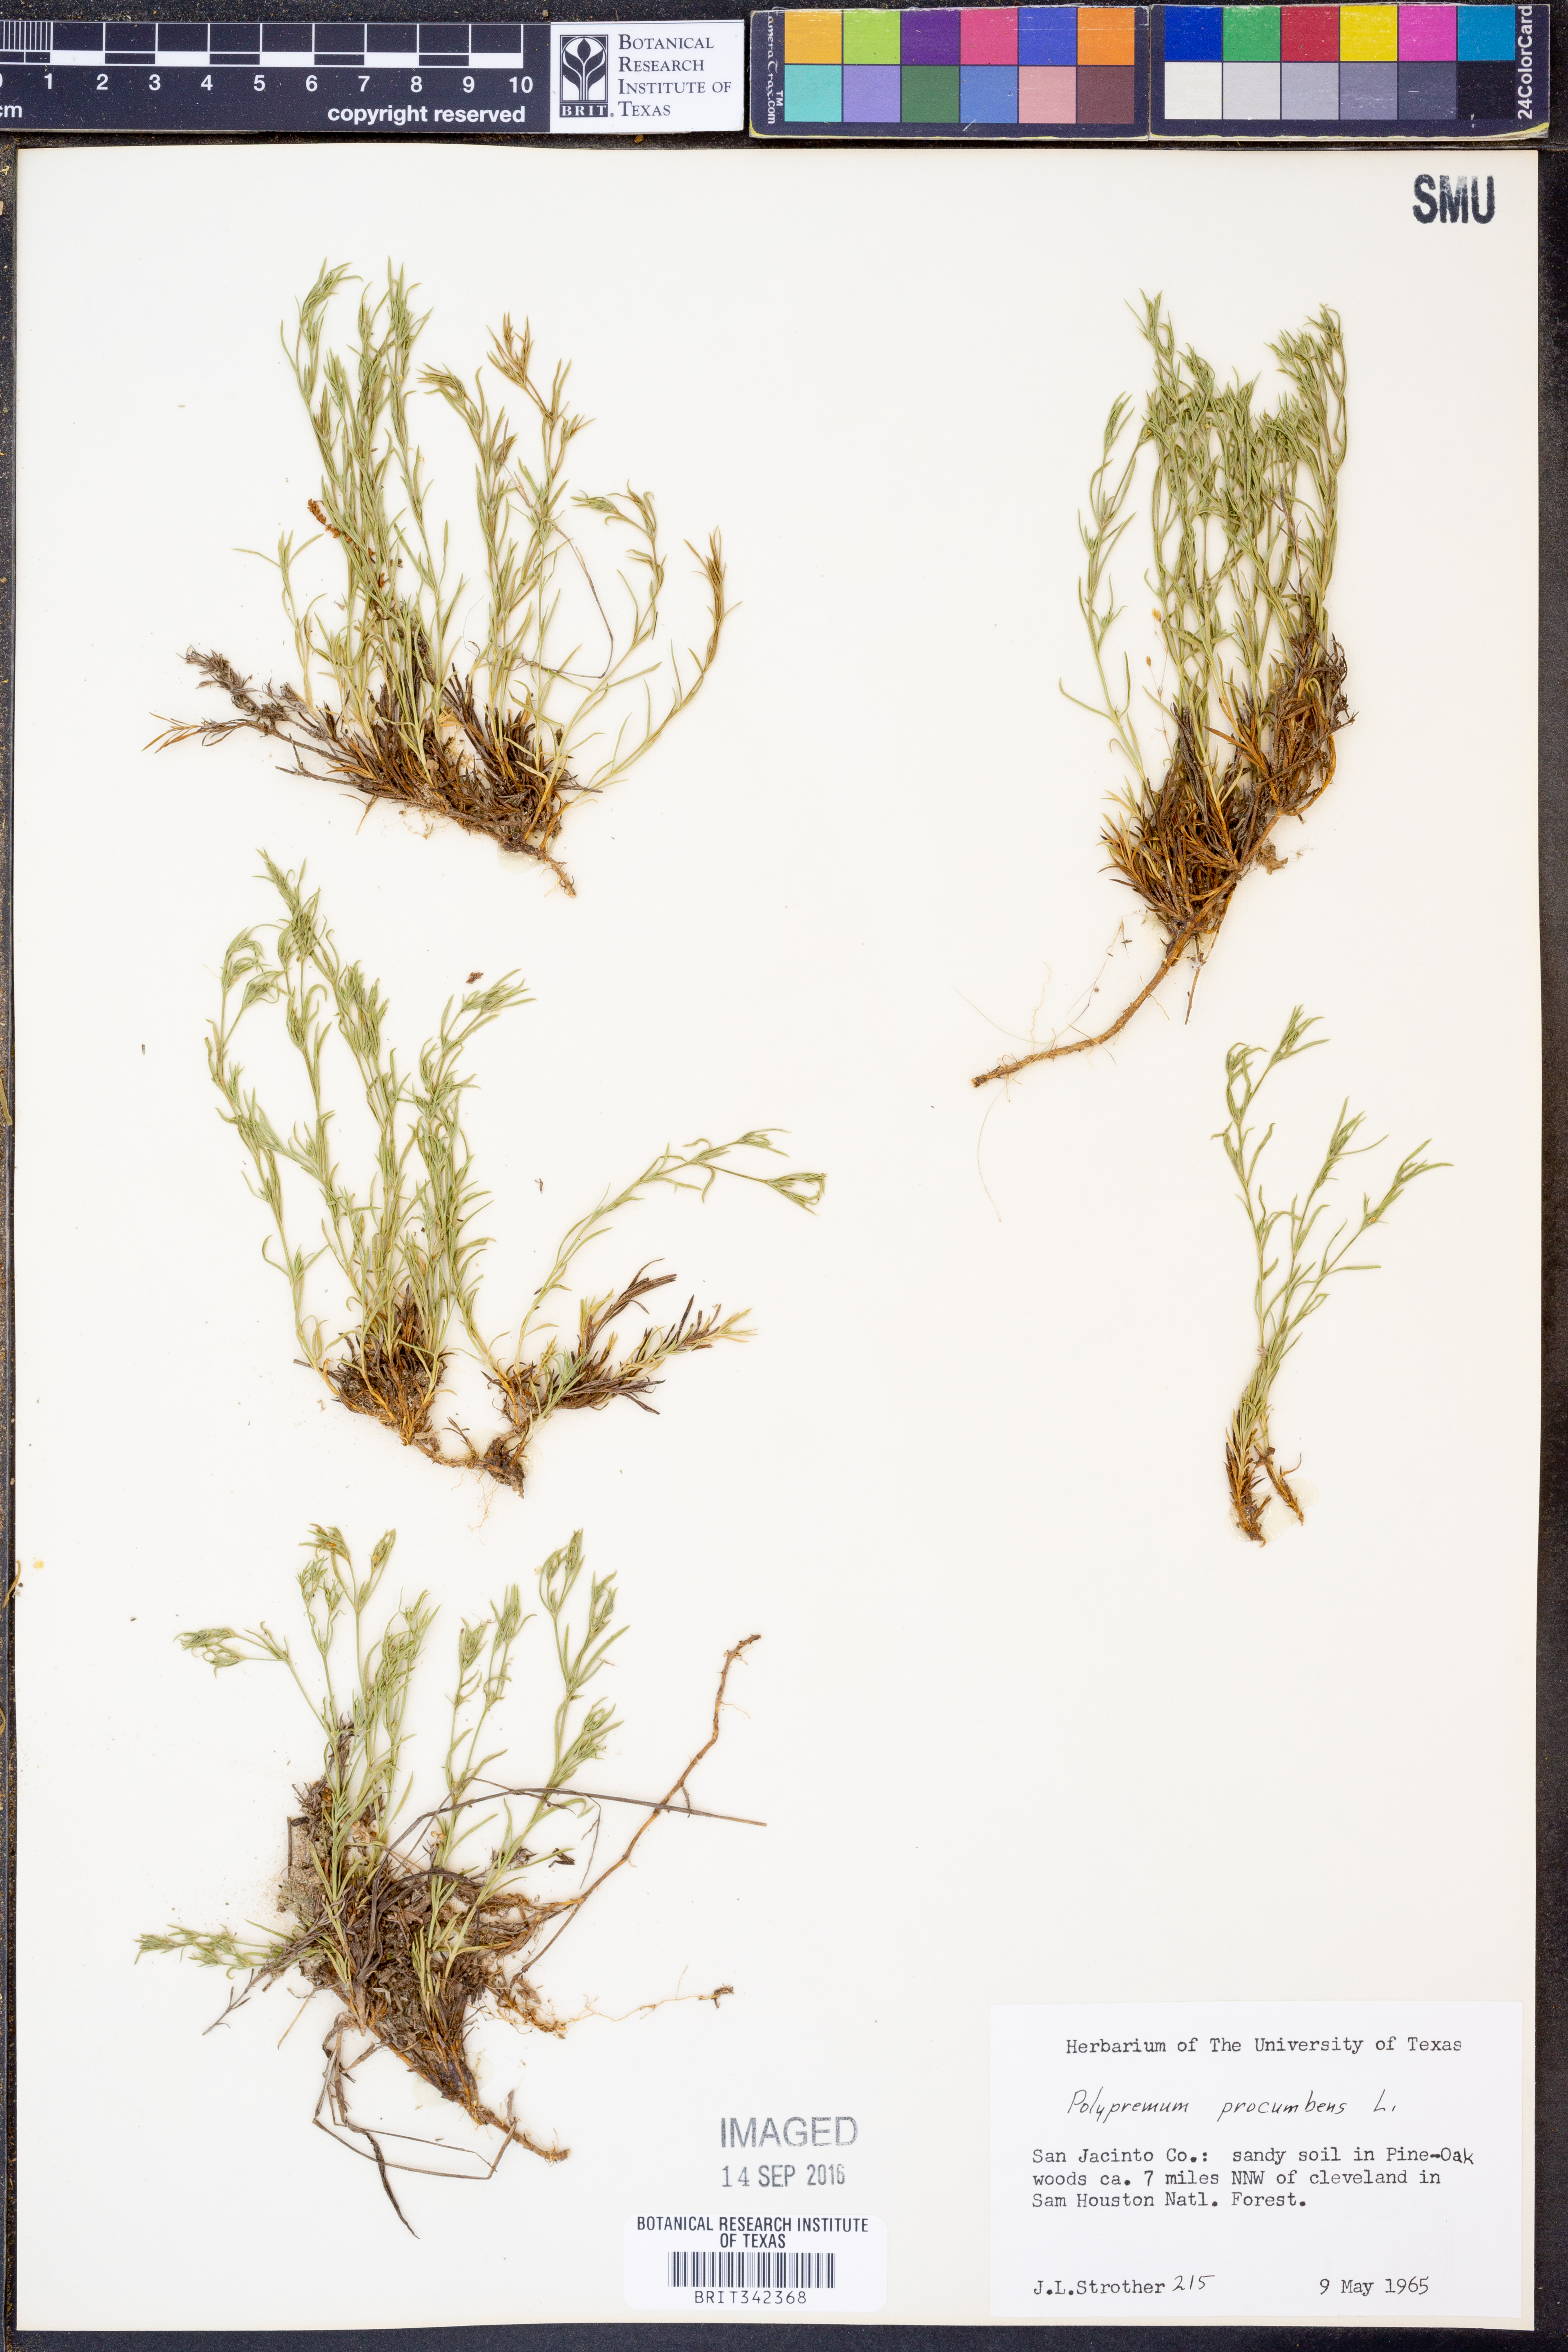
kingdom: Plantae
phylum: Tracheophyta
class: Magnoliopsida
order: Lamiales
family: Tetrachondraceae
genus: Polypremum
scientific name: Polypremum procumbens
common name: Juniper-leaf
